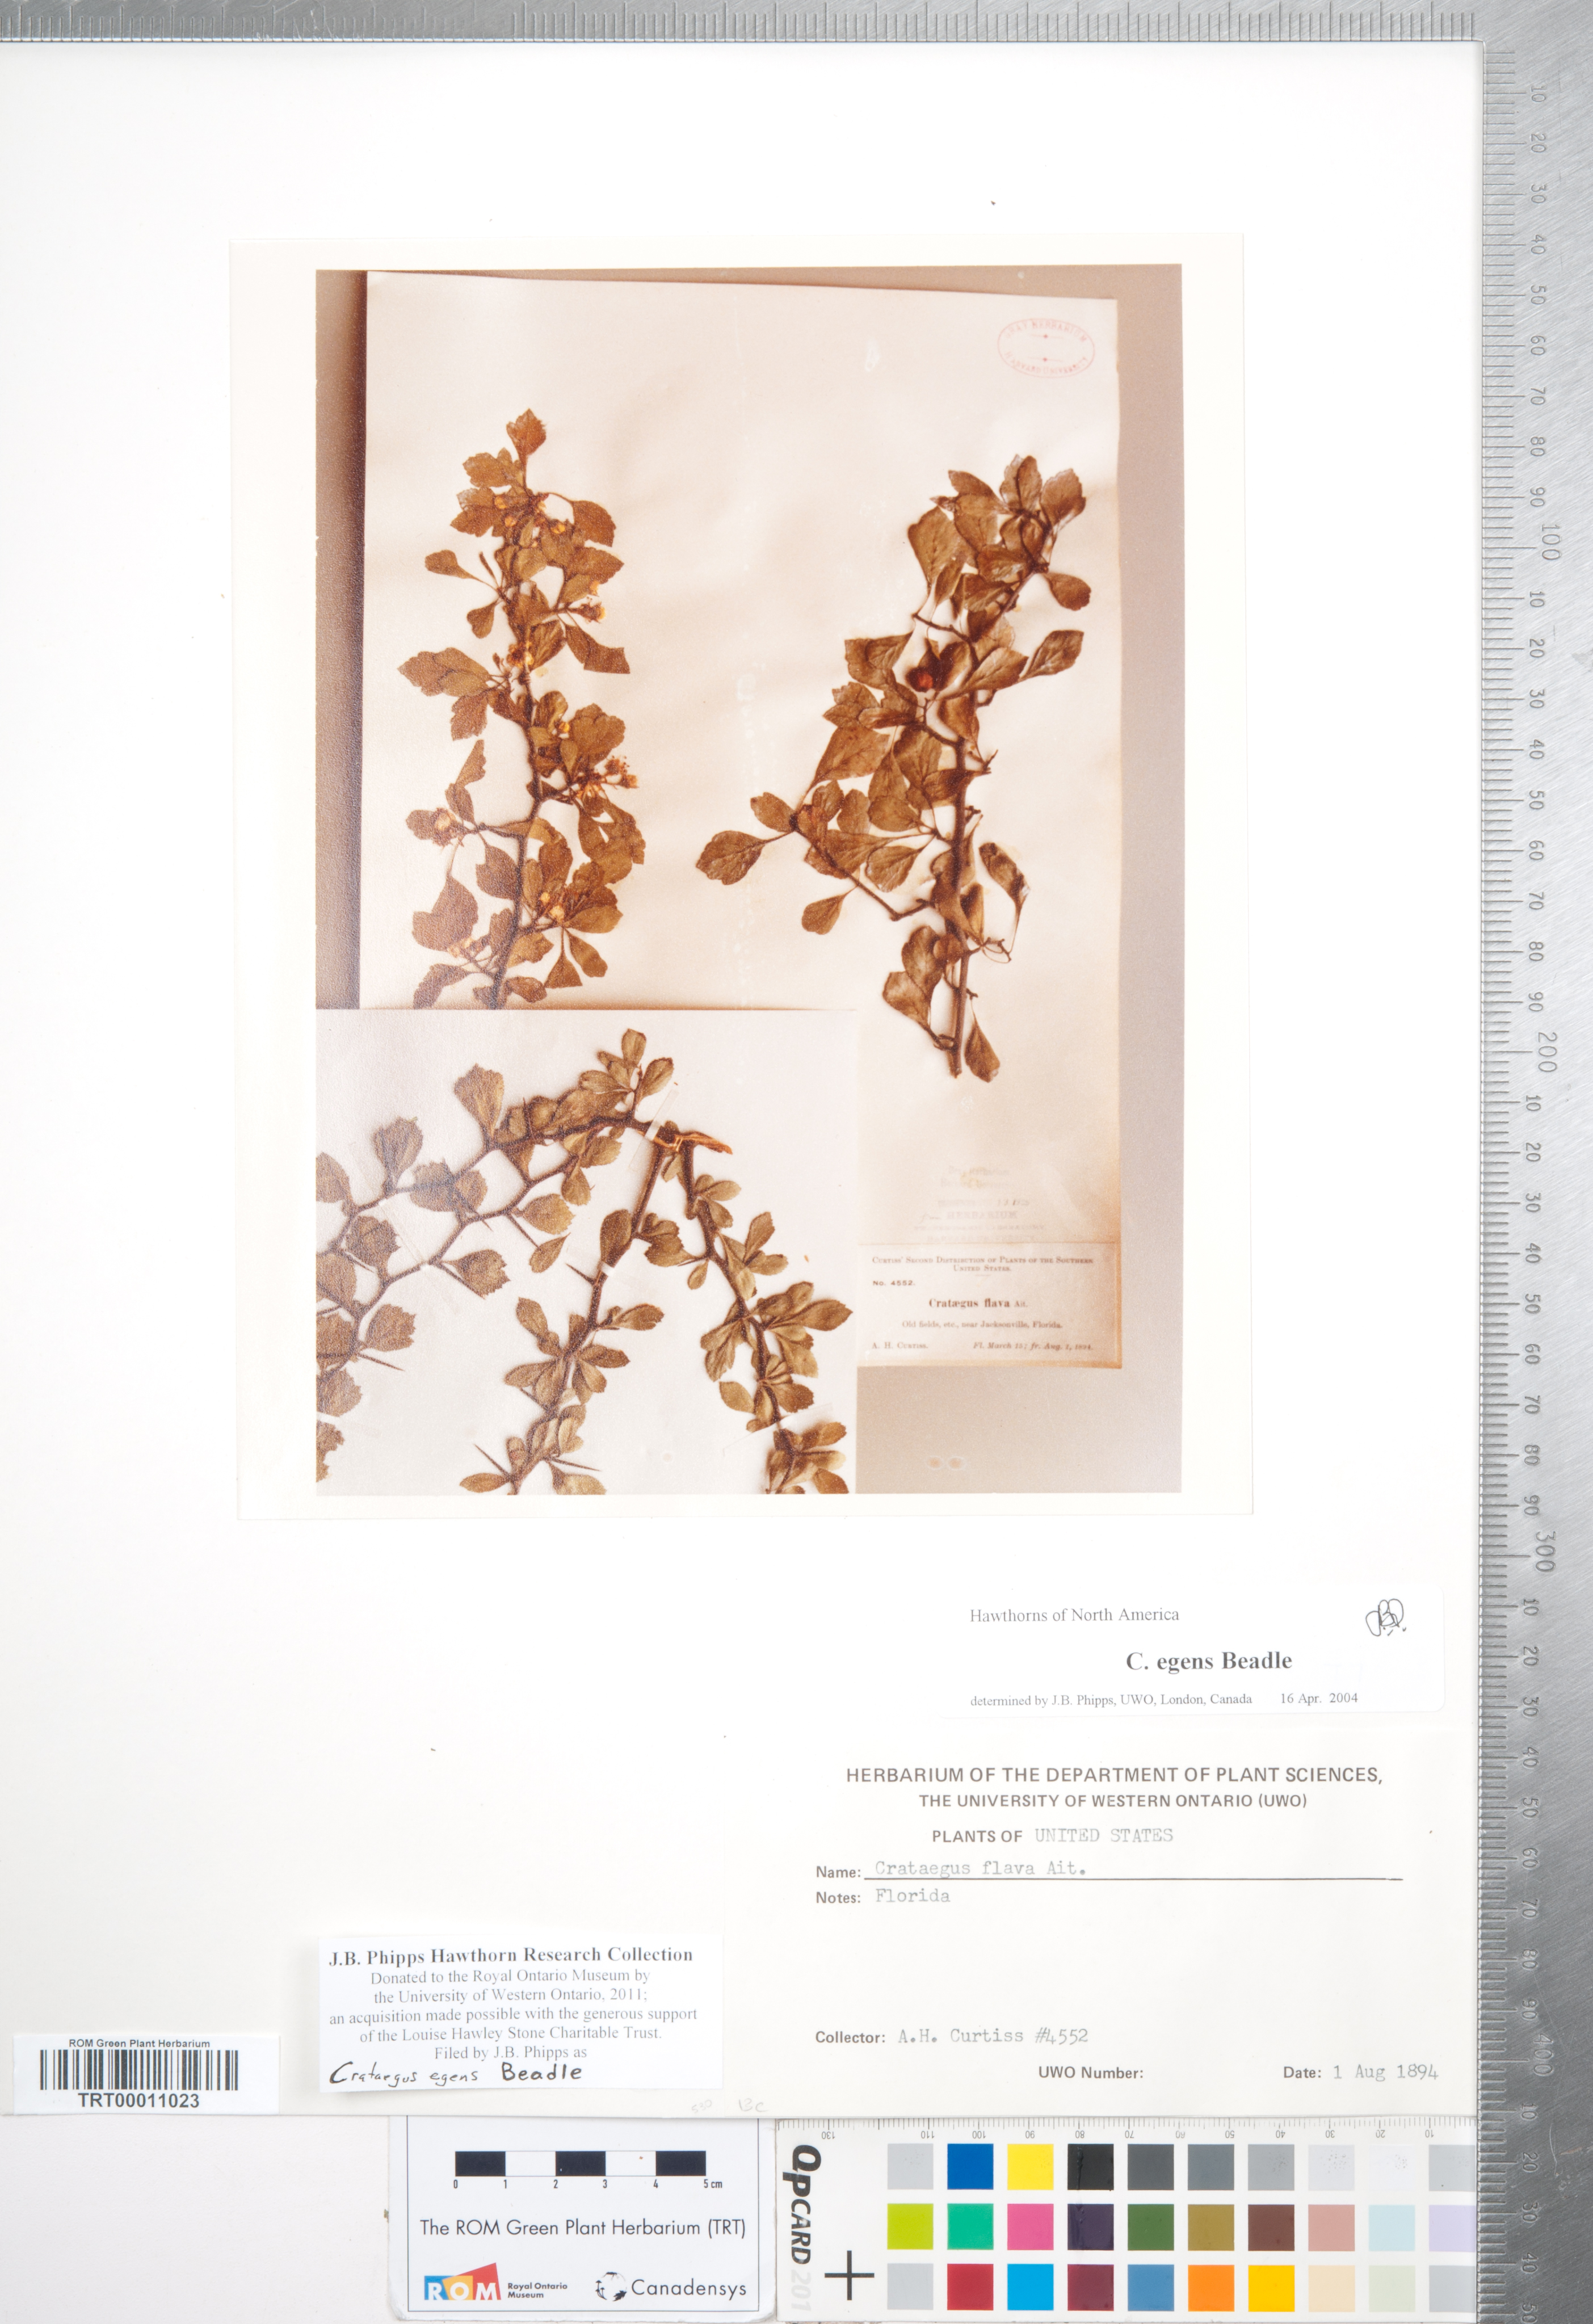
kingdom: Plantae
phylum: Tracheophyta
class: Magnoliopsida
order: Rosales
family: Rosaceae
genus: Crataegus
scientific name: Crataegus senta
